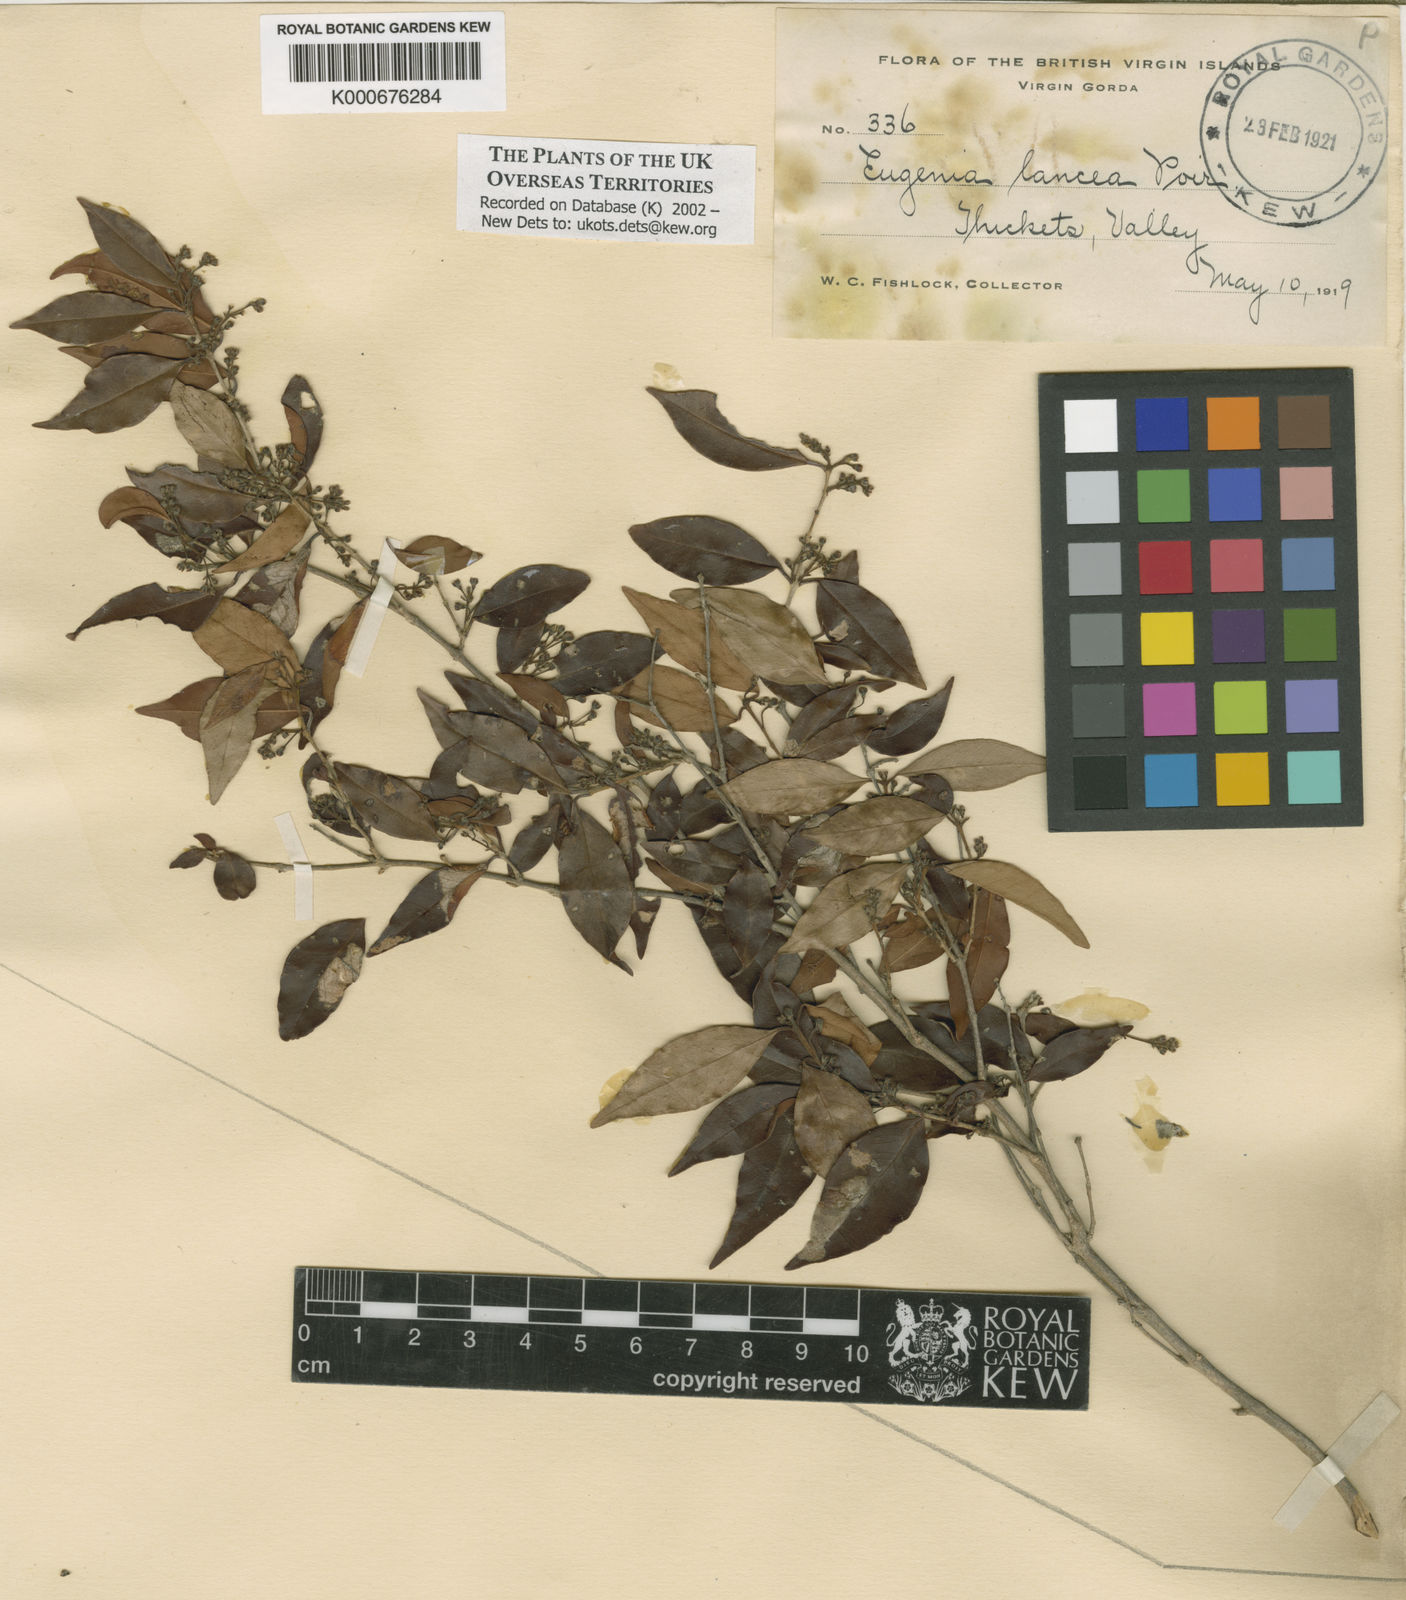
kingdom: Plantae
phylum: Tracheophyta
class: Magnoliopsida
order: Malpighiales
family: Euphorbiaceae
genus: Endospermum
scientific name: Endospermum diadenum
